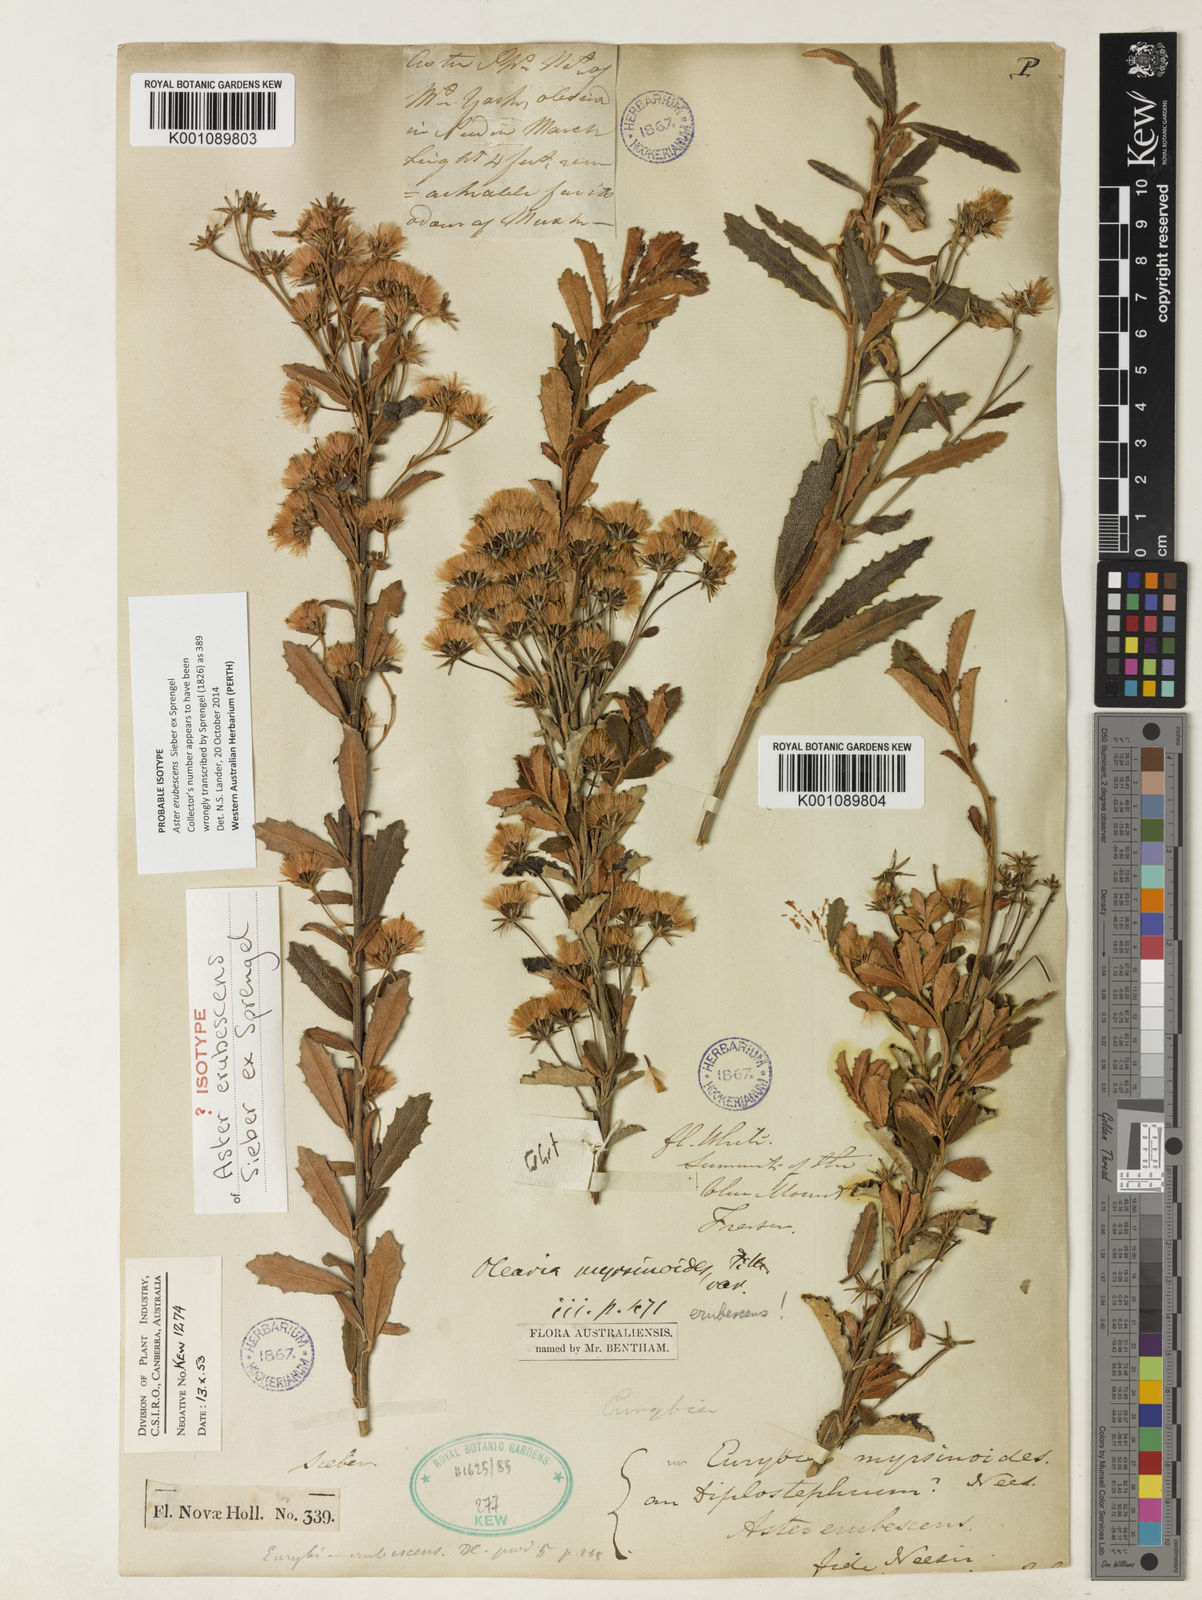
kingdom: Plantae
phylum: Tracheophyta
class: Magnoliopsida
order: Asterales
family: Asteraceae
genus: Olearia
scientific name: Olearia erubescens
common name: Moth daisybush
